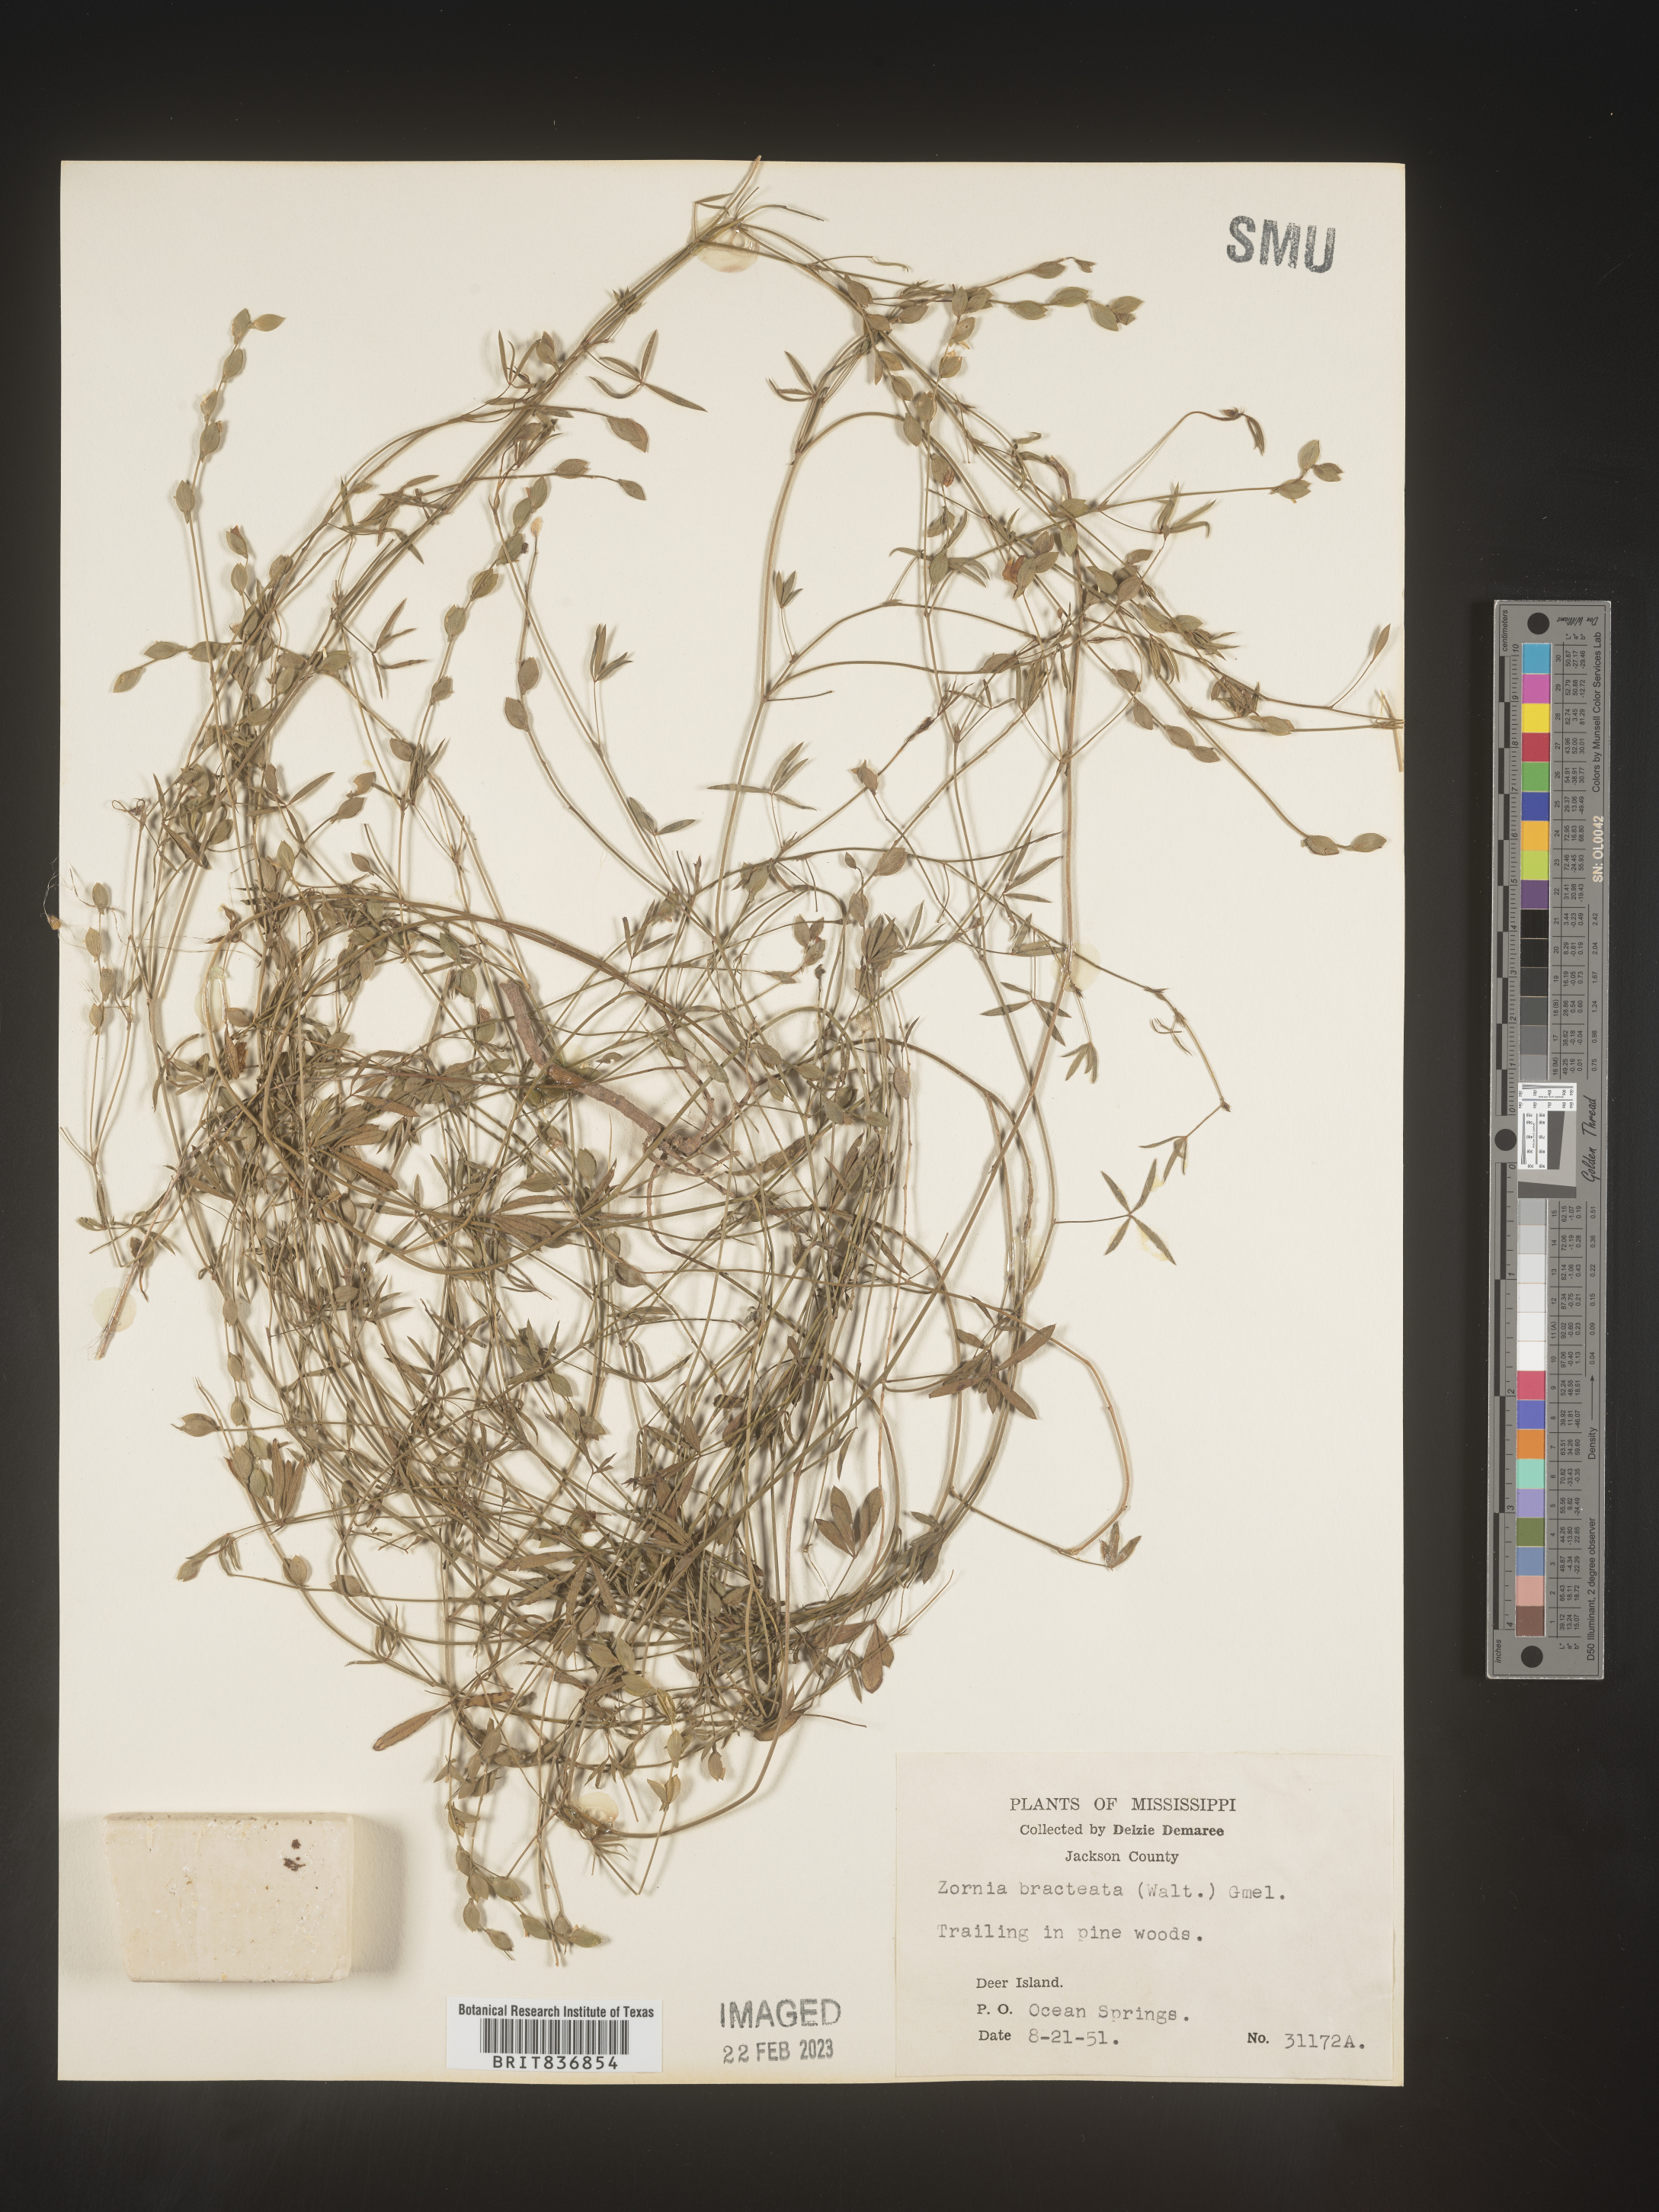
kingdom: Plantae
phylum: Tracheophyta
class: Magnoliopsida
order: Fabales
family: Fabaceae
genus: Zornia
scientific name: Zornia
